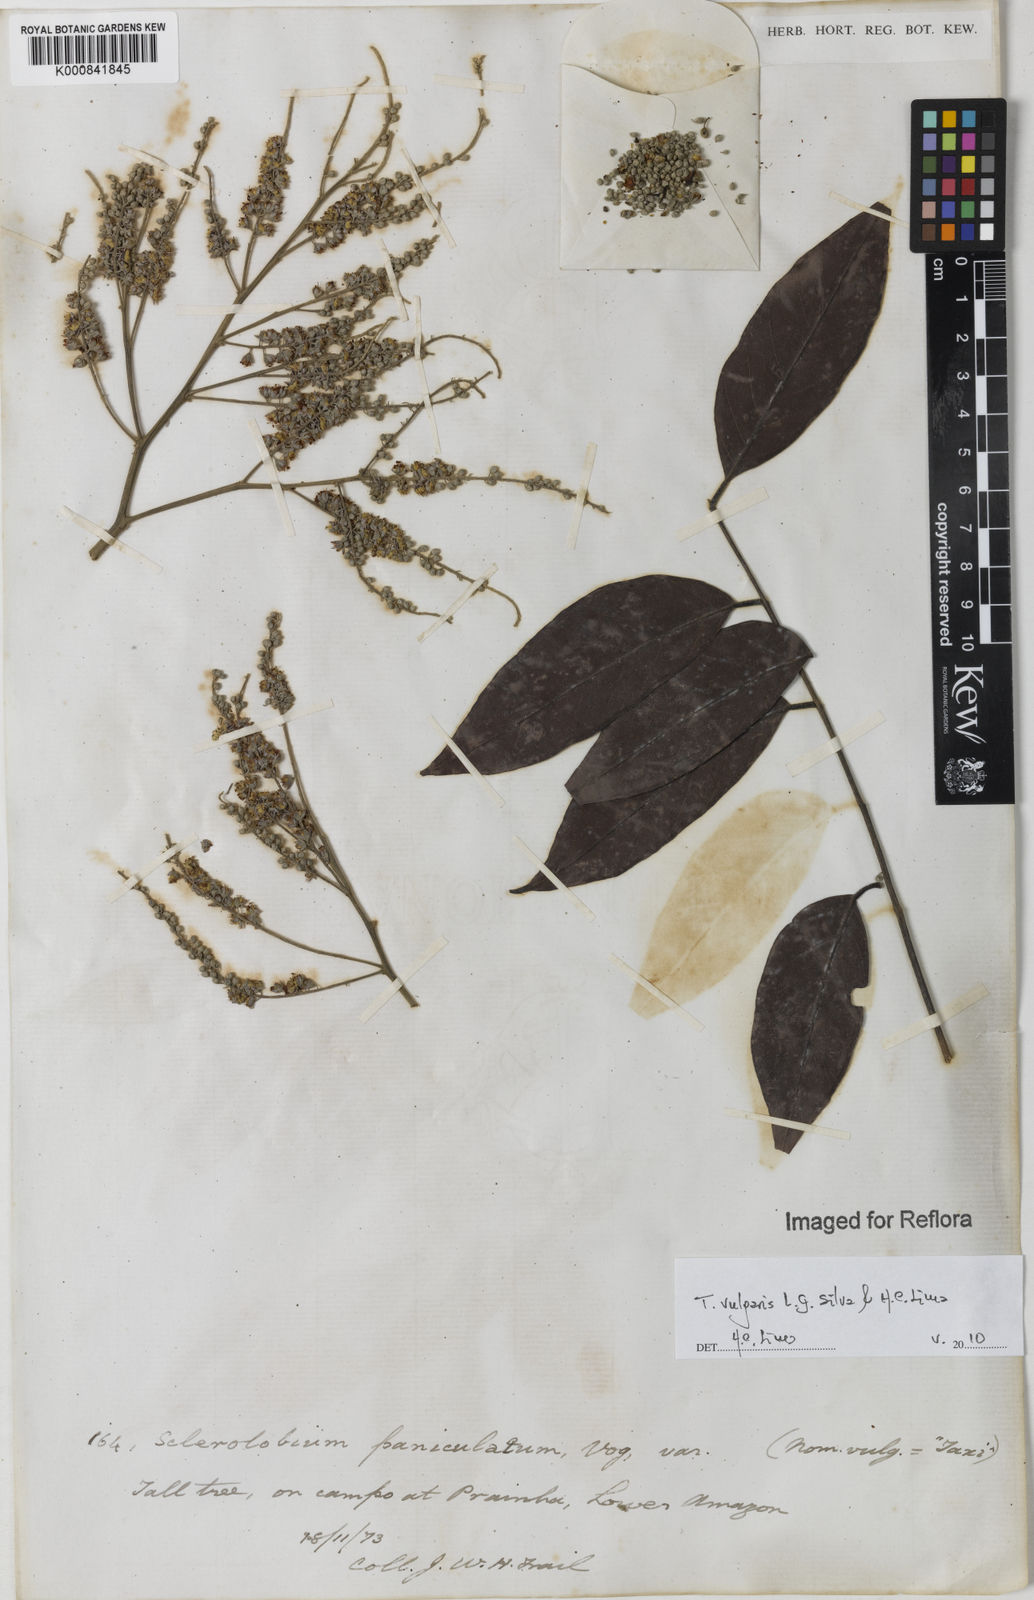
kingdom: Plantae
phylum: Tracheophyta
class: Magnoliopsida
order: Fabales
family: Fabaceae
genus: Tachigali
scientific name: Tachigali vulgaris
